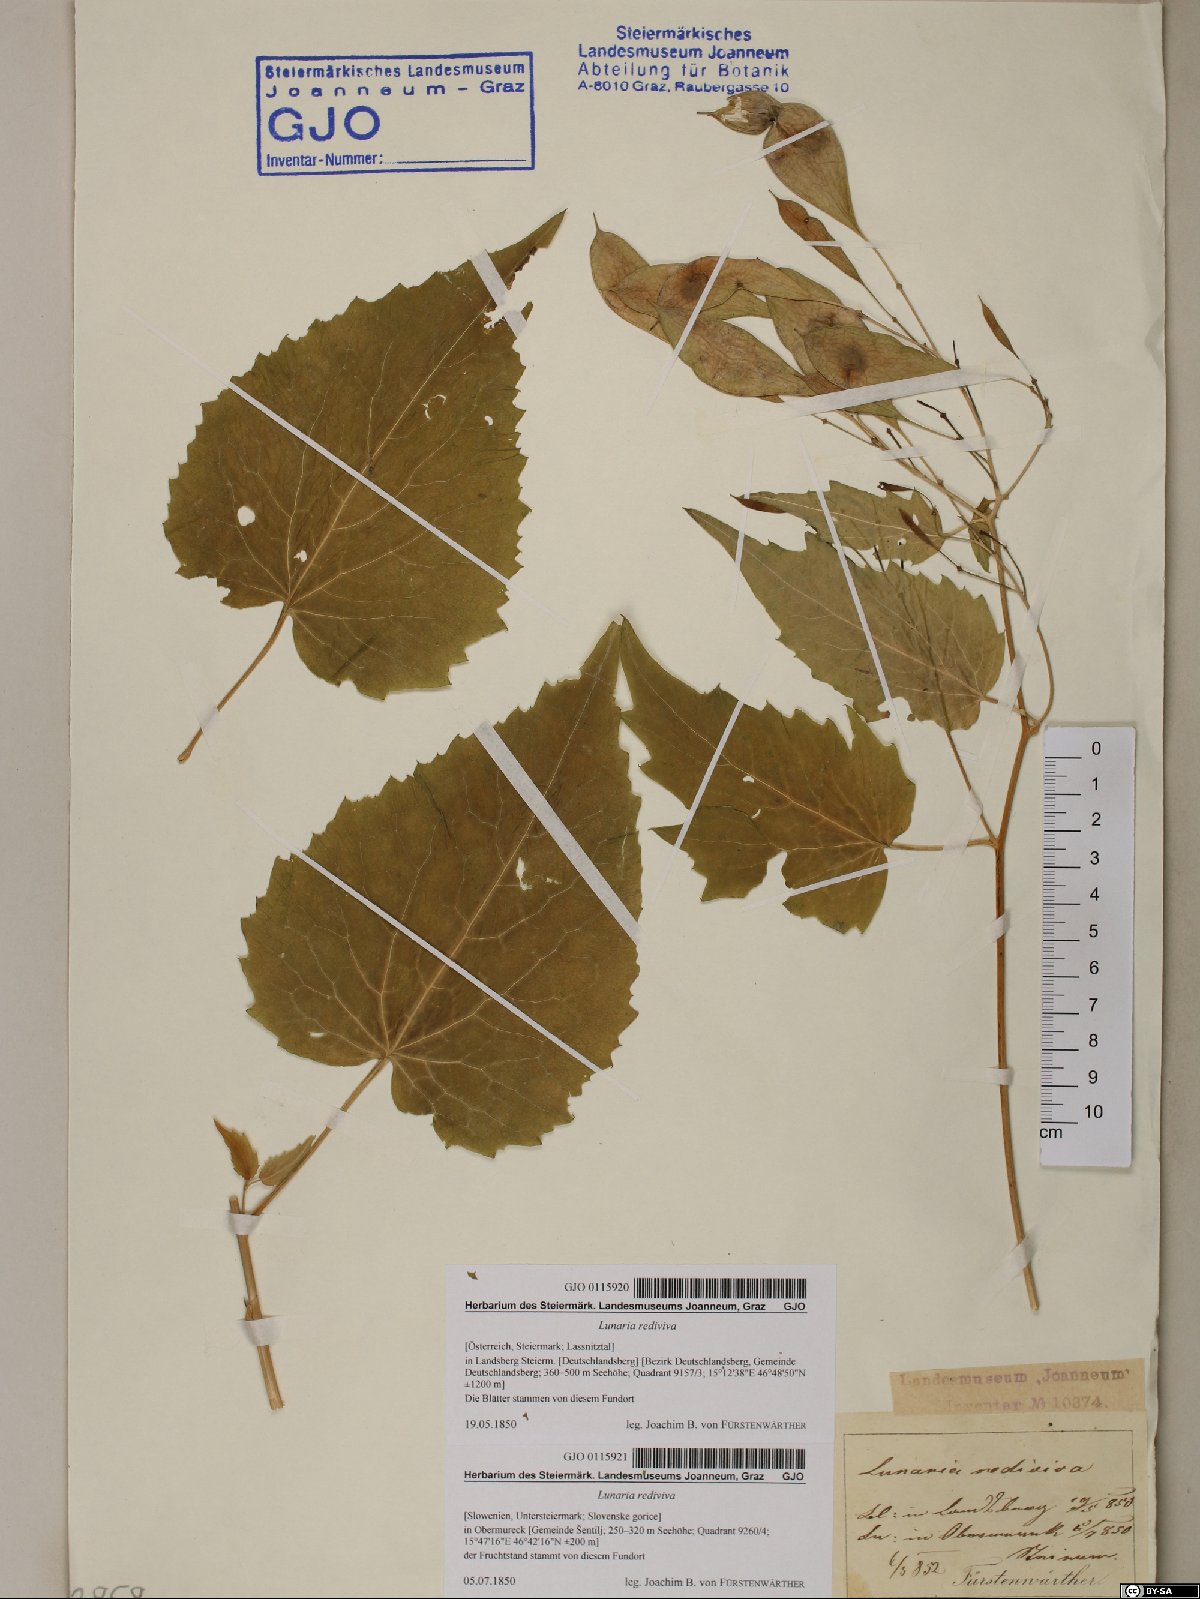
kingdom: Plantae
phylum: Tracheophyta
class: Magnoliopsida
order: Brassicales
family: Brassicaceae
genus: Lunaria
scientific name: Lunaria rediviva
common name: Perennial honesty
